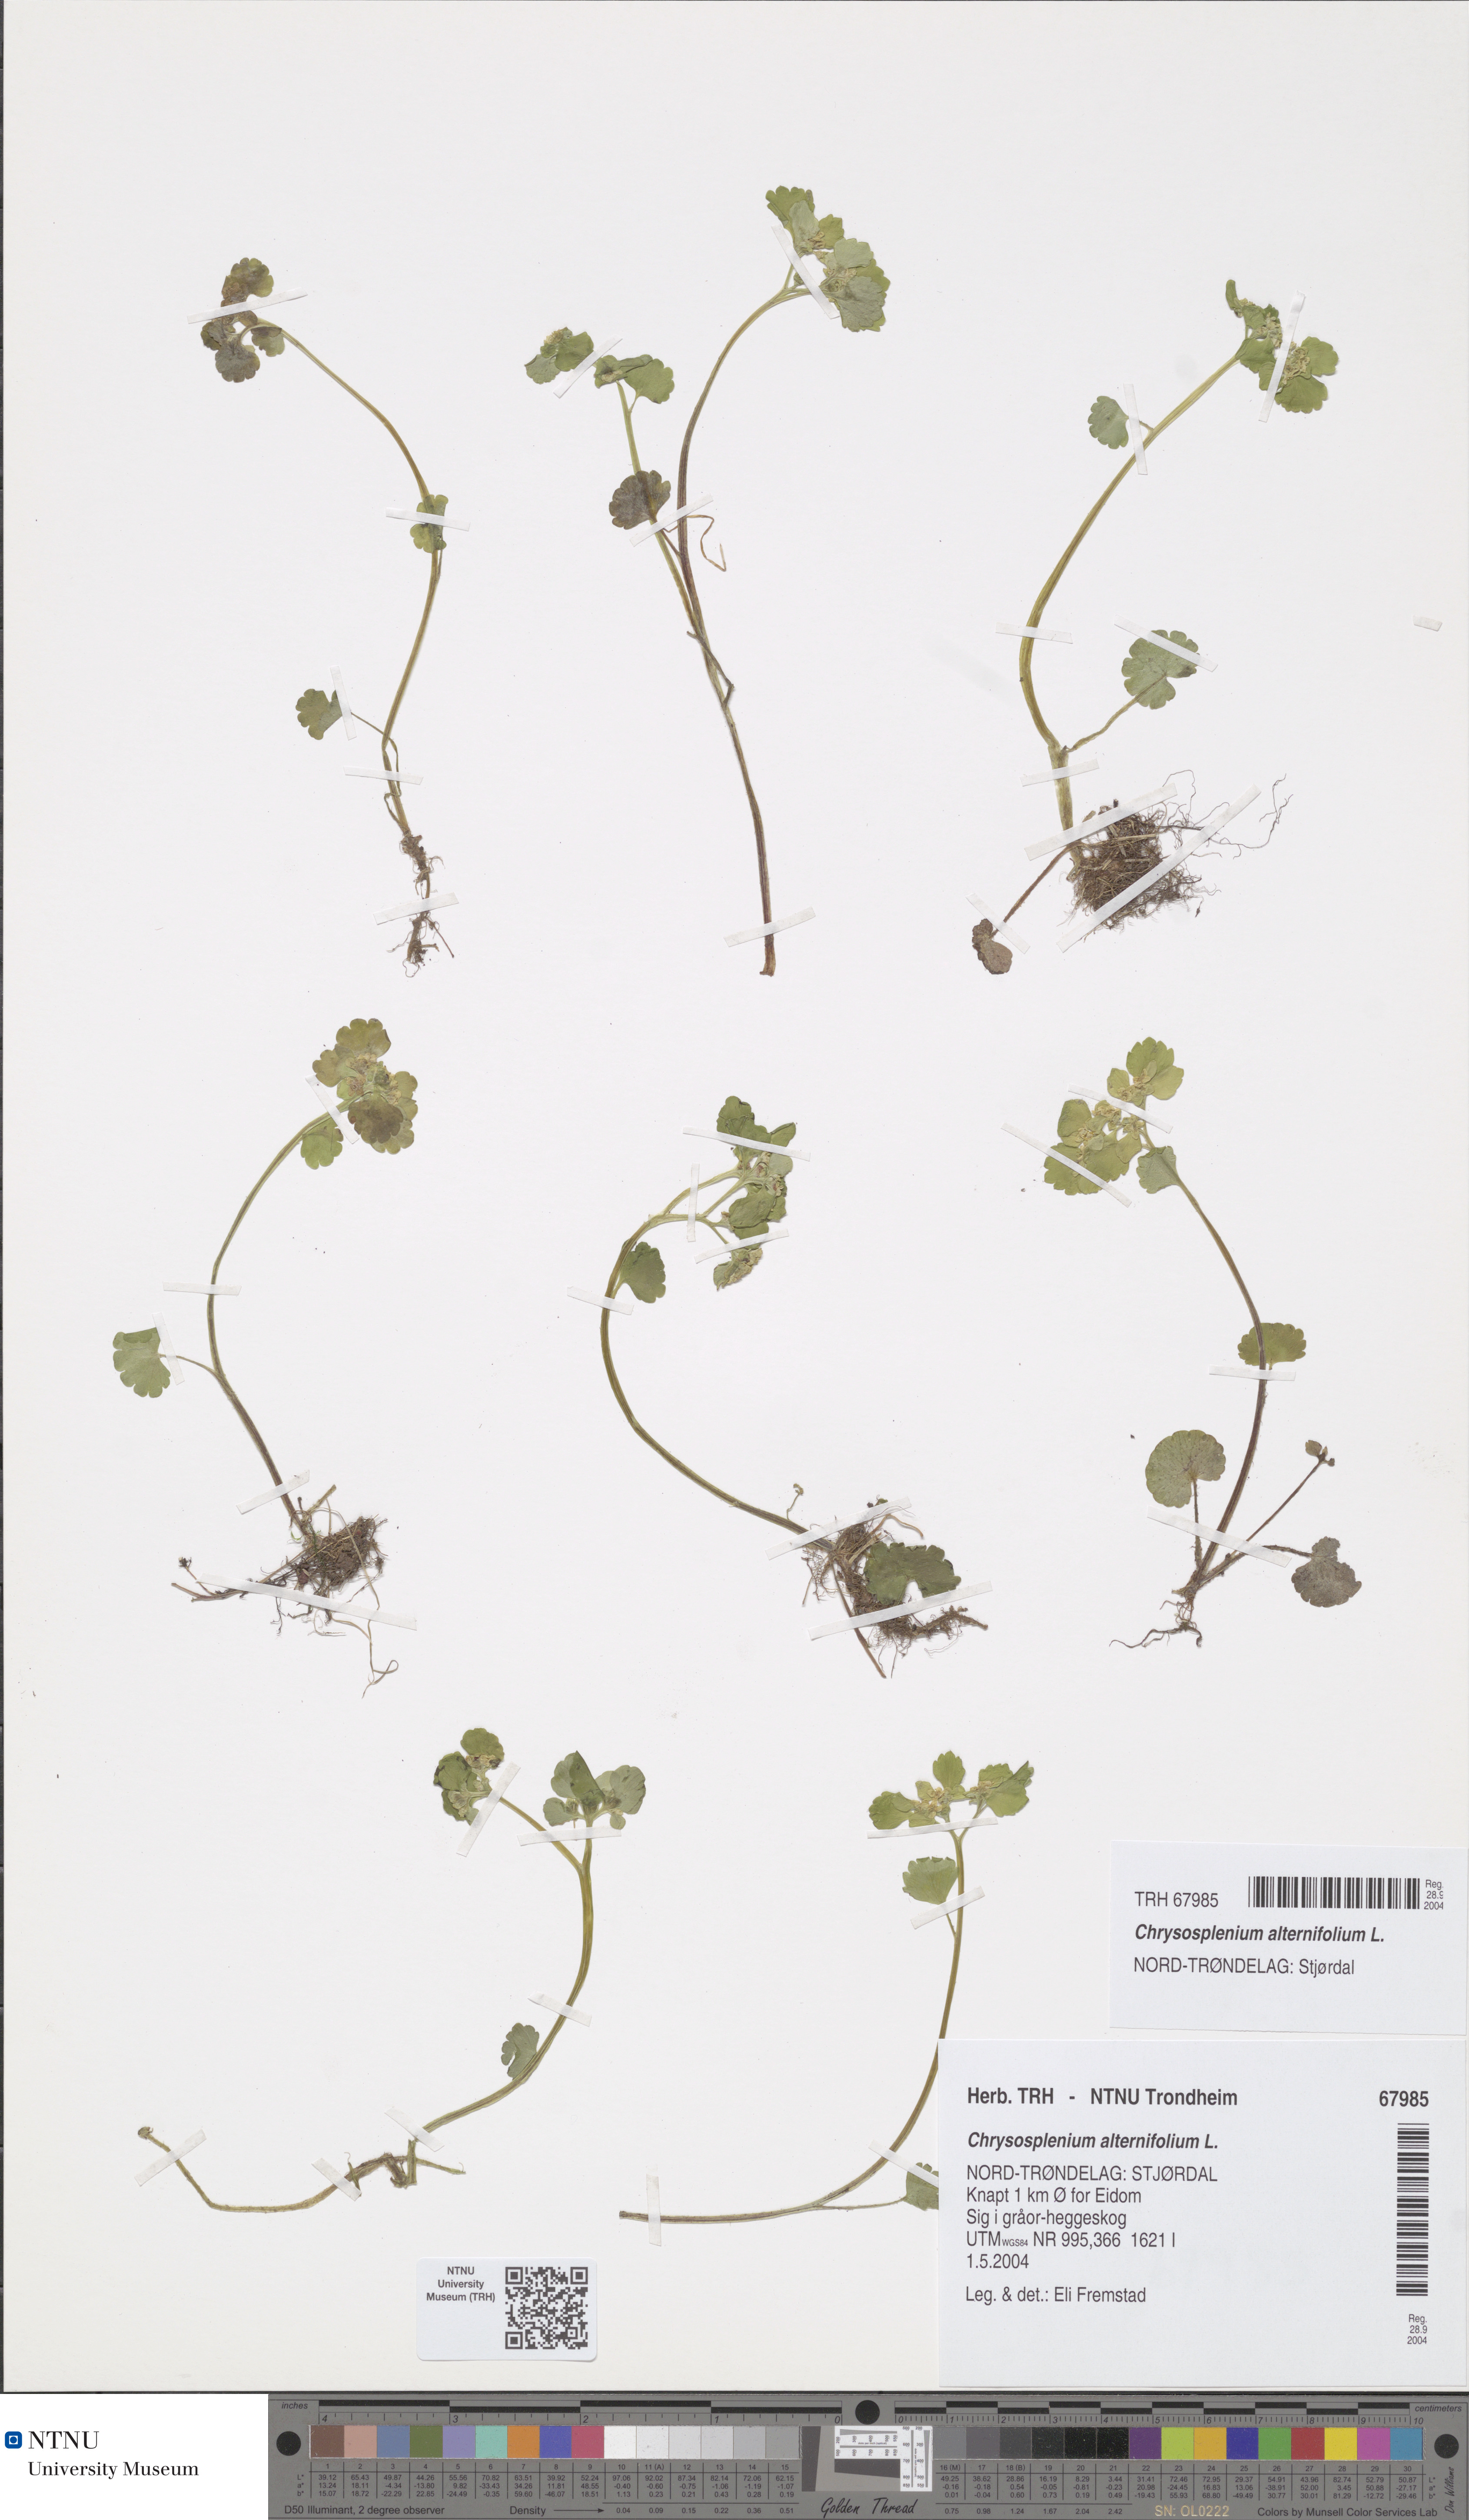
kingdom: Plantae
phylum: Tracheophyta
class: Magnoliopsida
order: Saxifragales
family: Saxifragaceae
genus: Chrysosplenium
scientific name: Chrysosplenium alternifolium
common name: Alternate-leaved golden-saxifrage
